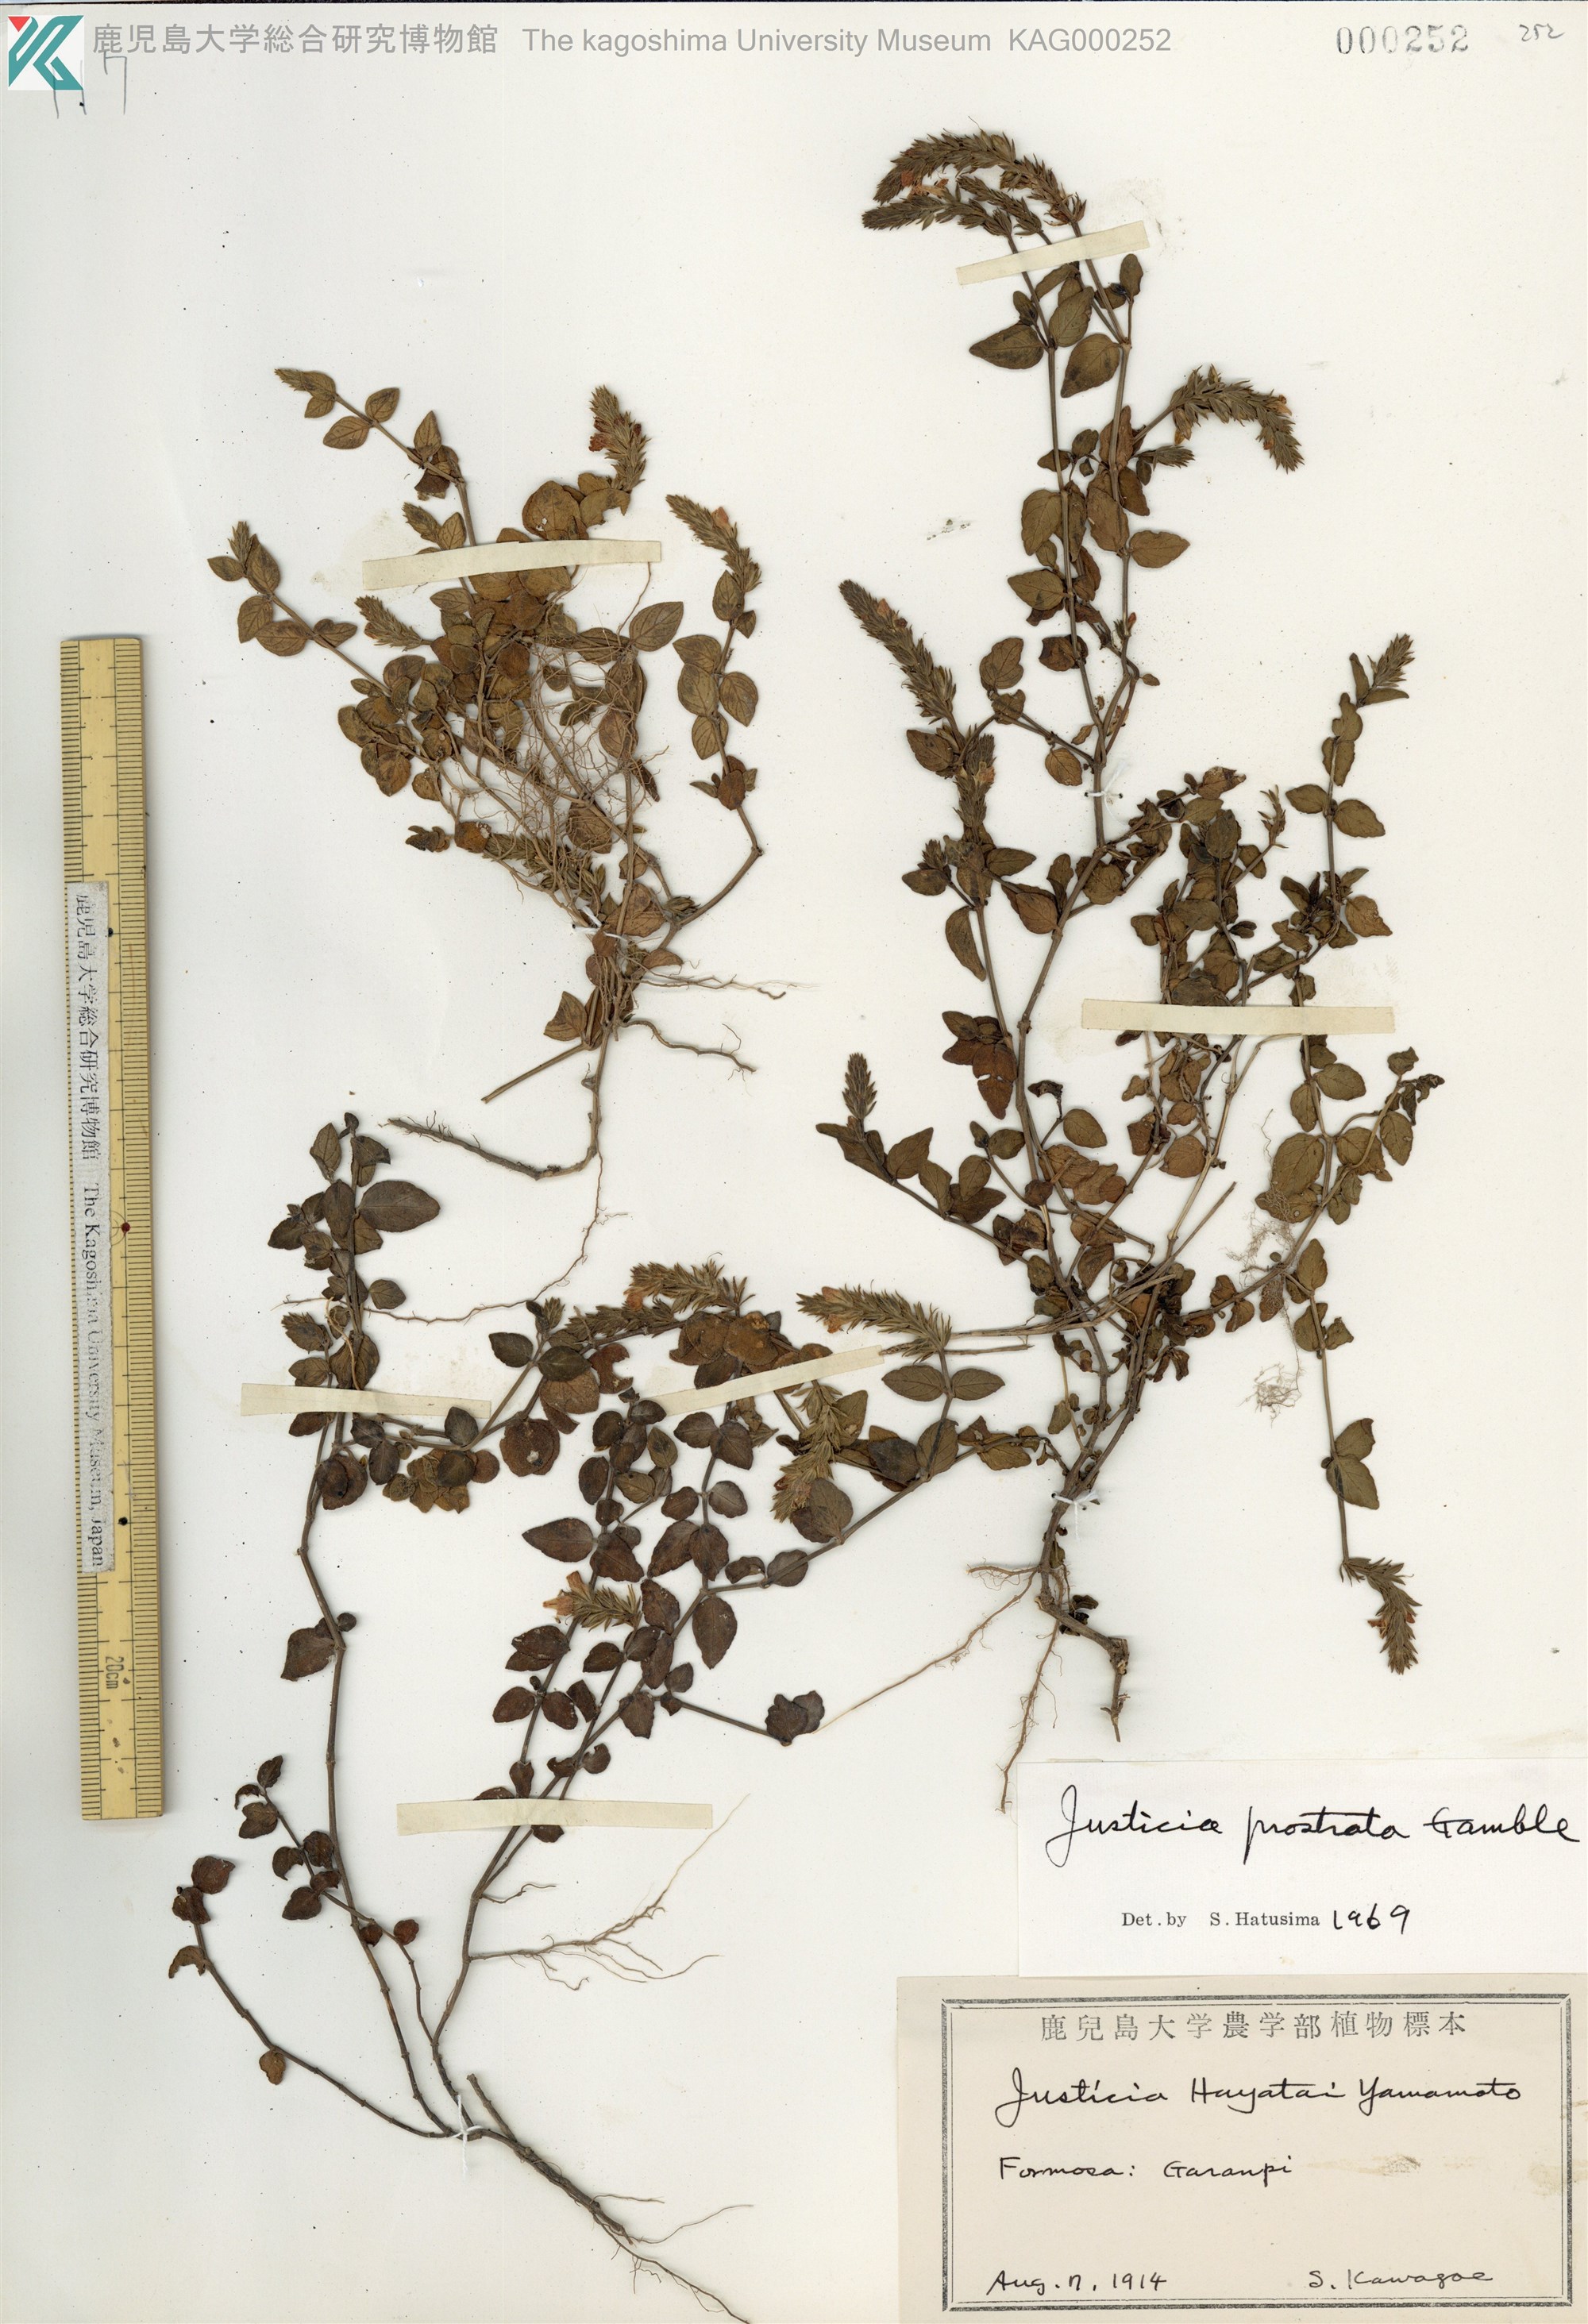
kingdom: Plantae
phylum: Tracheophyta
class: Magnoliopsida
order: Lamiales
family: Acanthaceae
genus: Rostellularia
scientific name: Rostellularia prostrata
